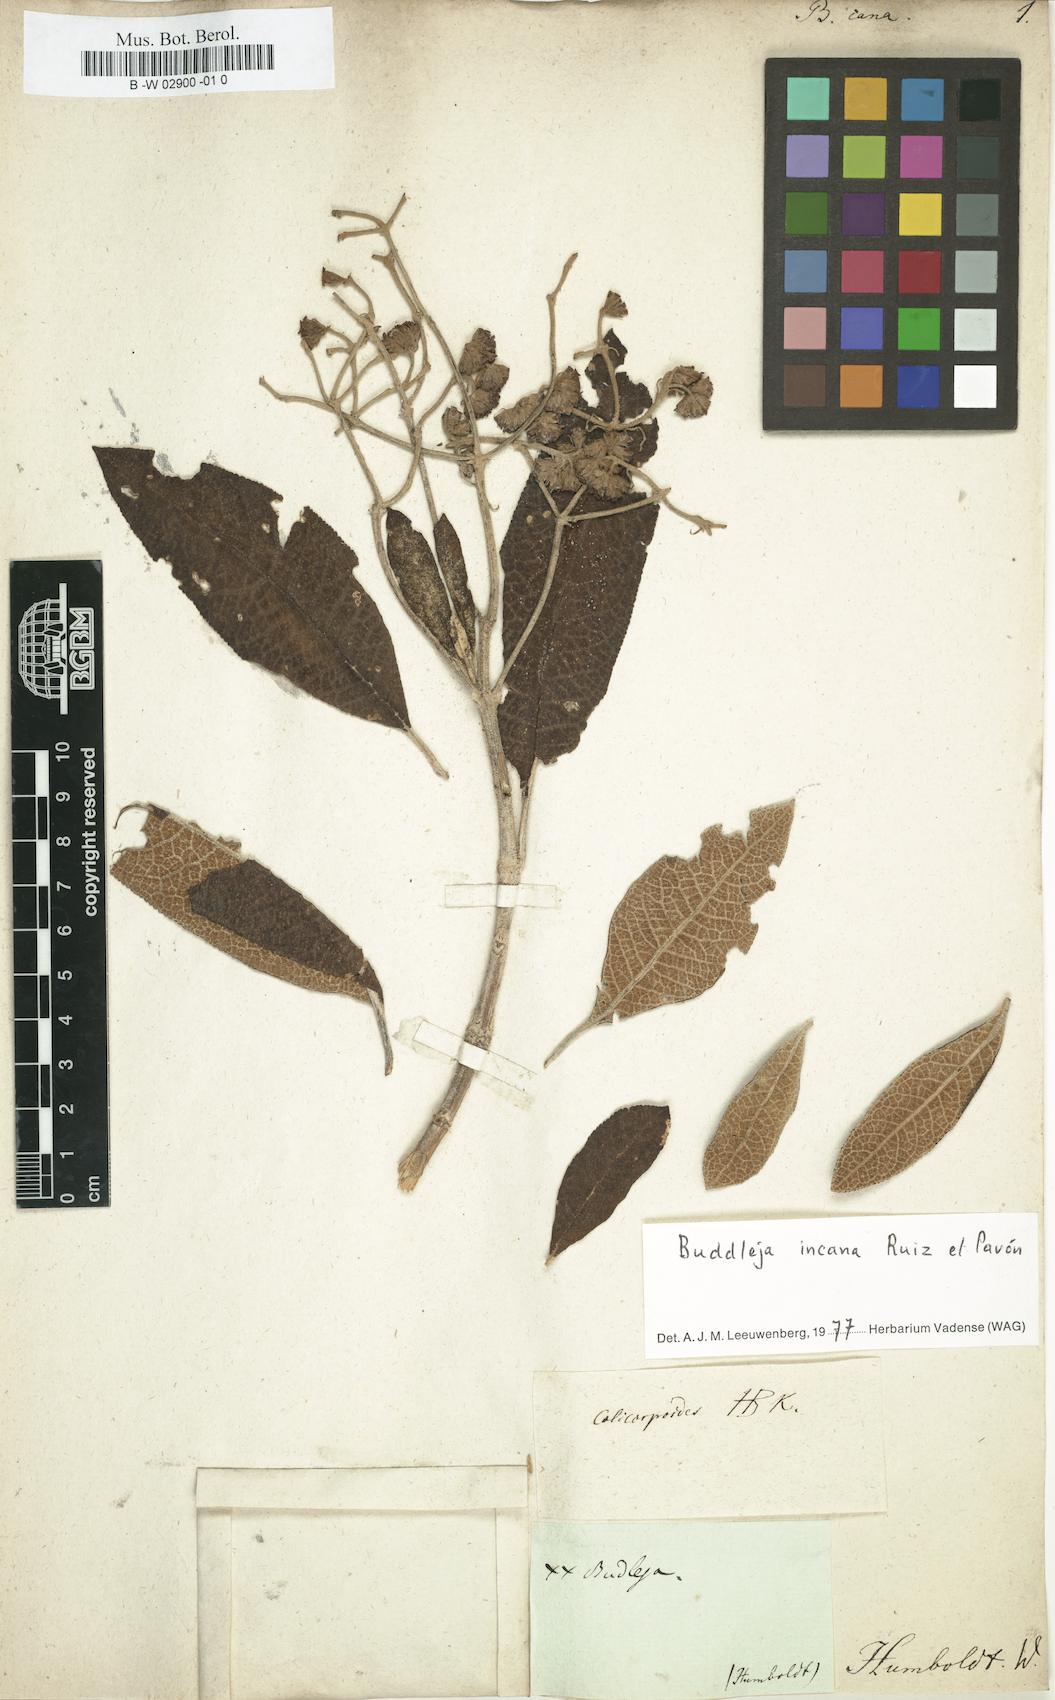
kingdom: Plantae
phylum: Tracheophyta
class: Magnoliopsida
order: Lamiales
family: Scrophulariaceae
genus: Buddleja
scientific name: Buddleja americana
